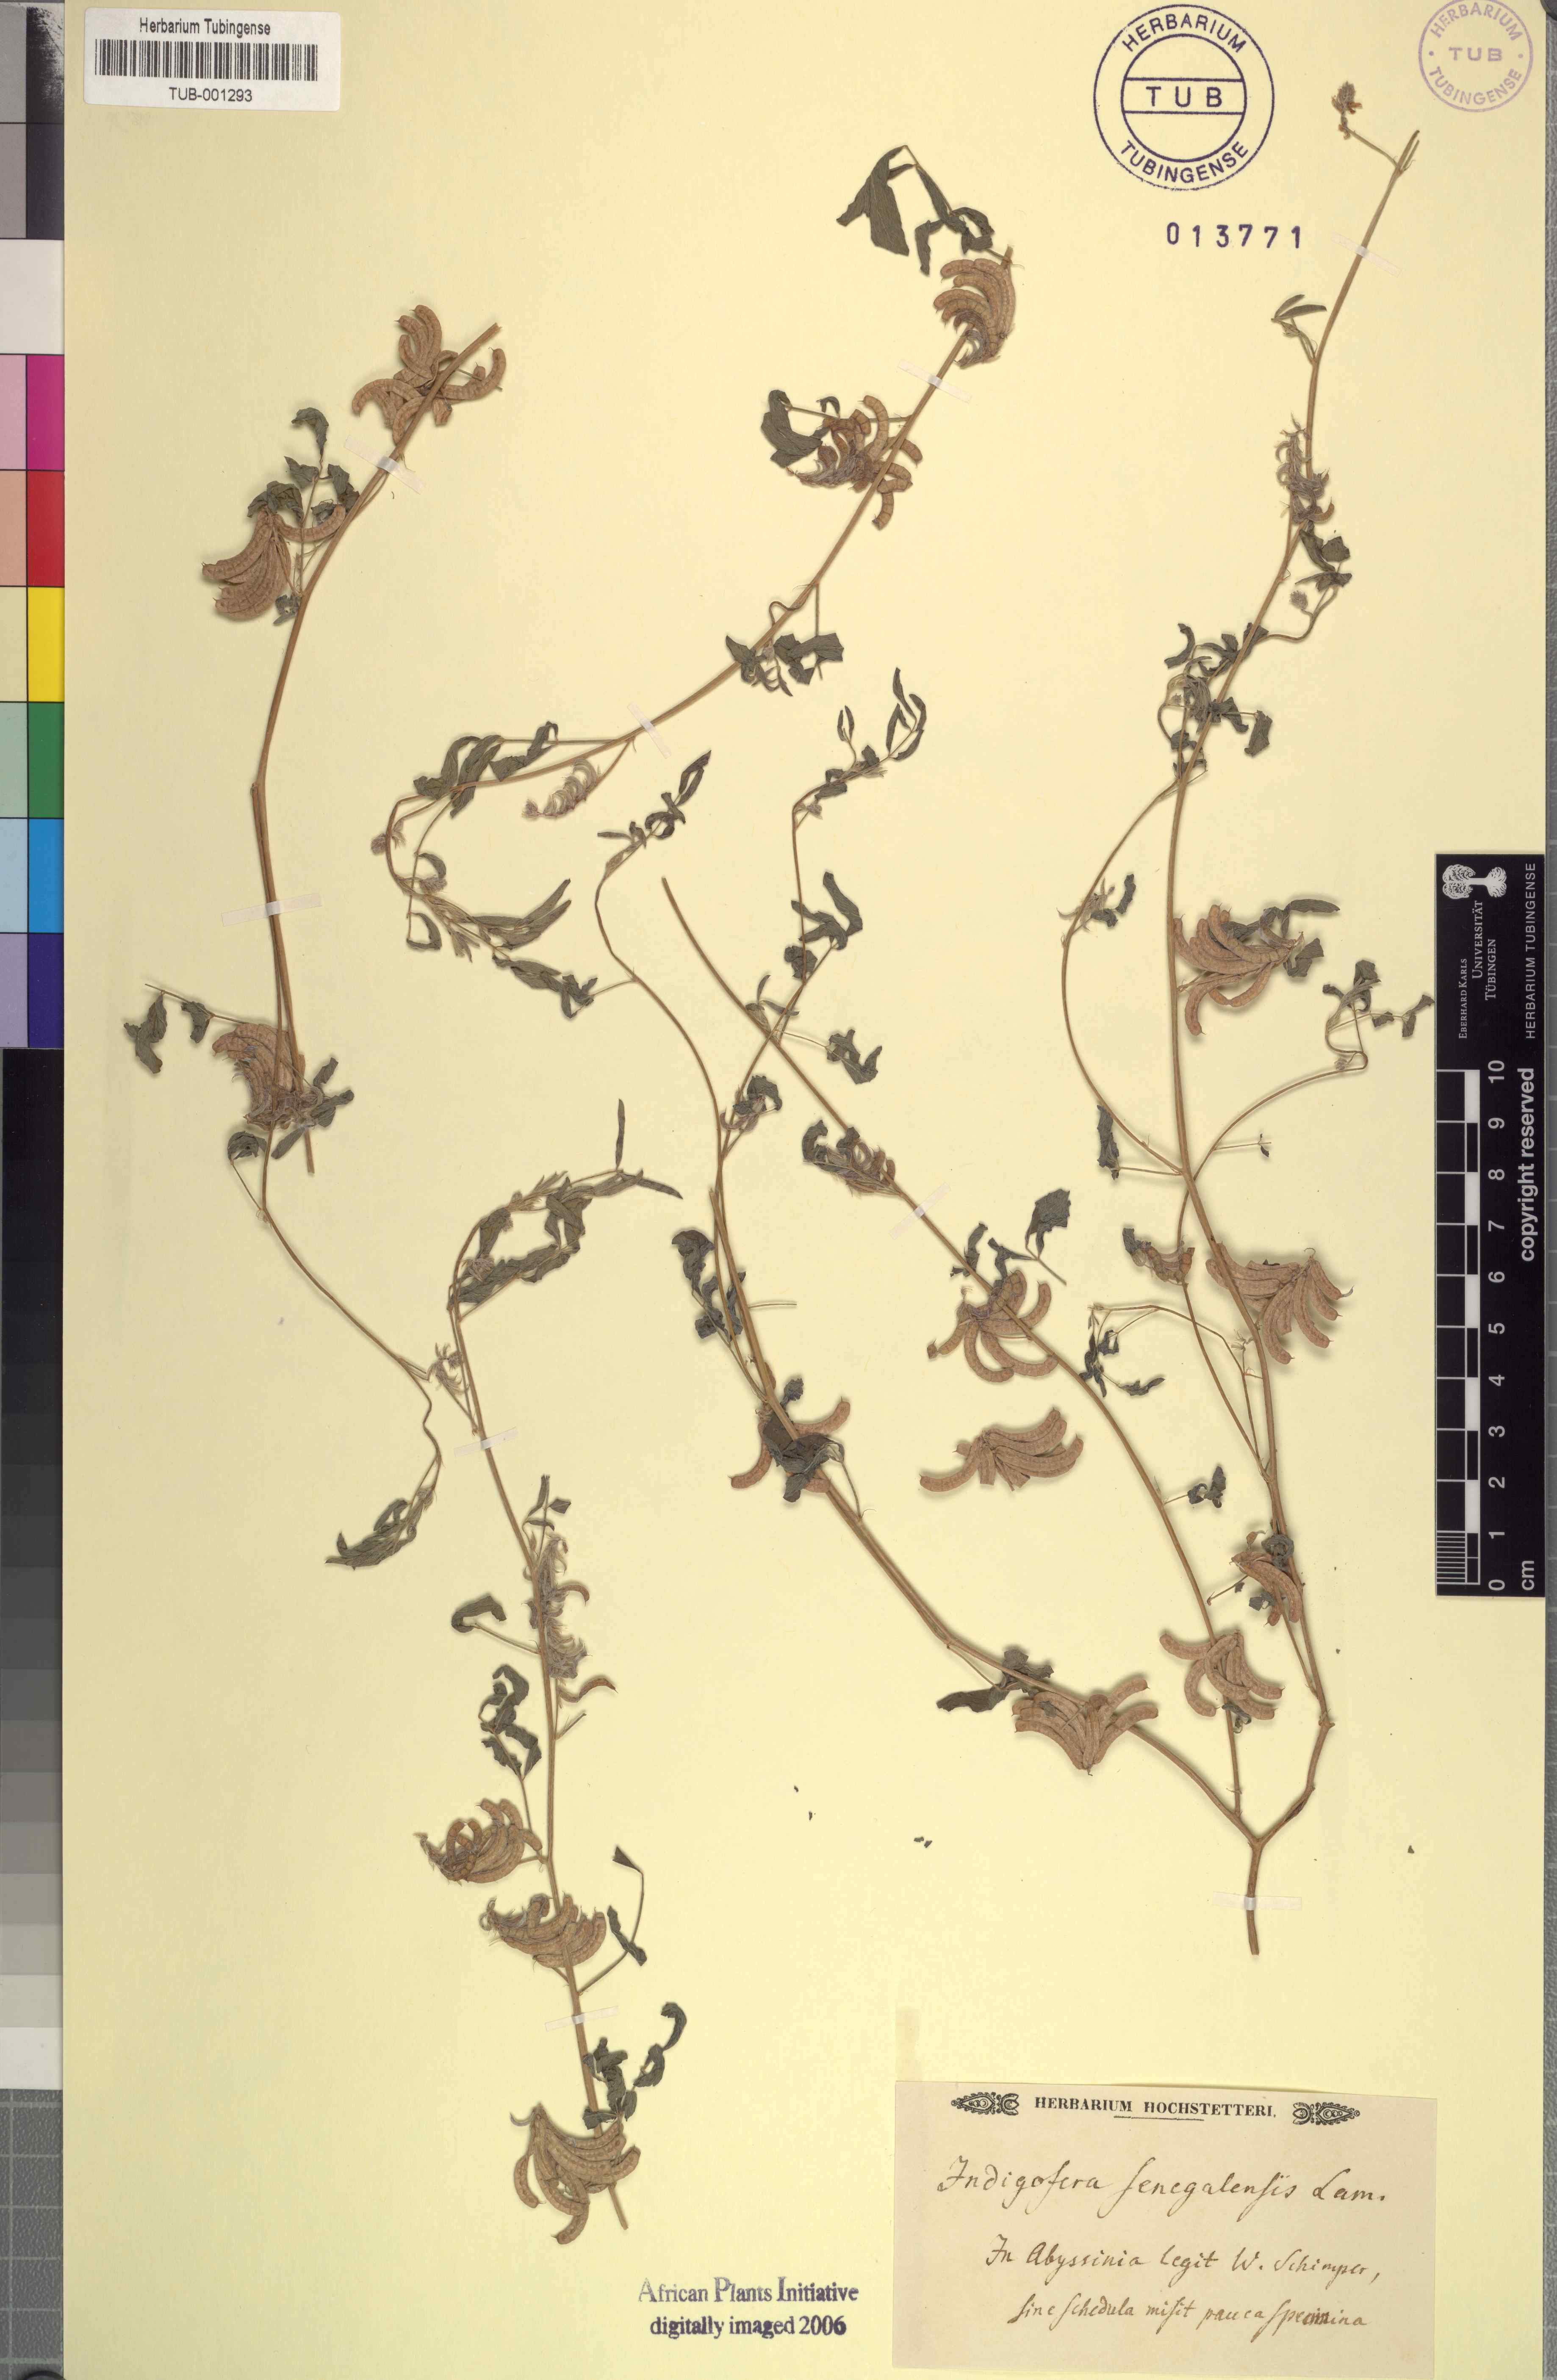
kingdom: Plantae
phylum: Tracheophyta
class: Magnoliopsida
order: Fabales
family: Fabaceae
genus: Indigofera
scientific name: Indigofera senegalensis
